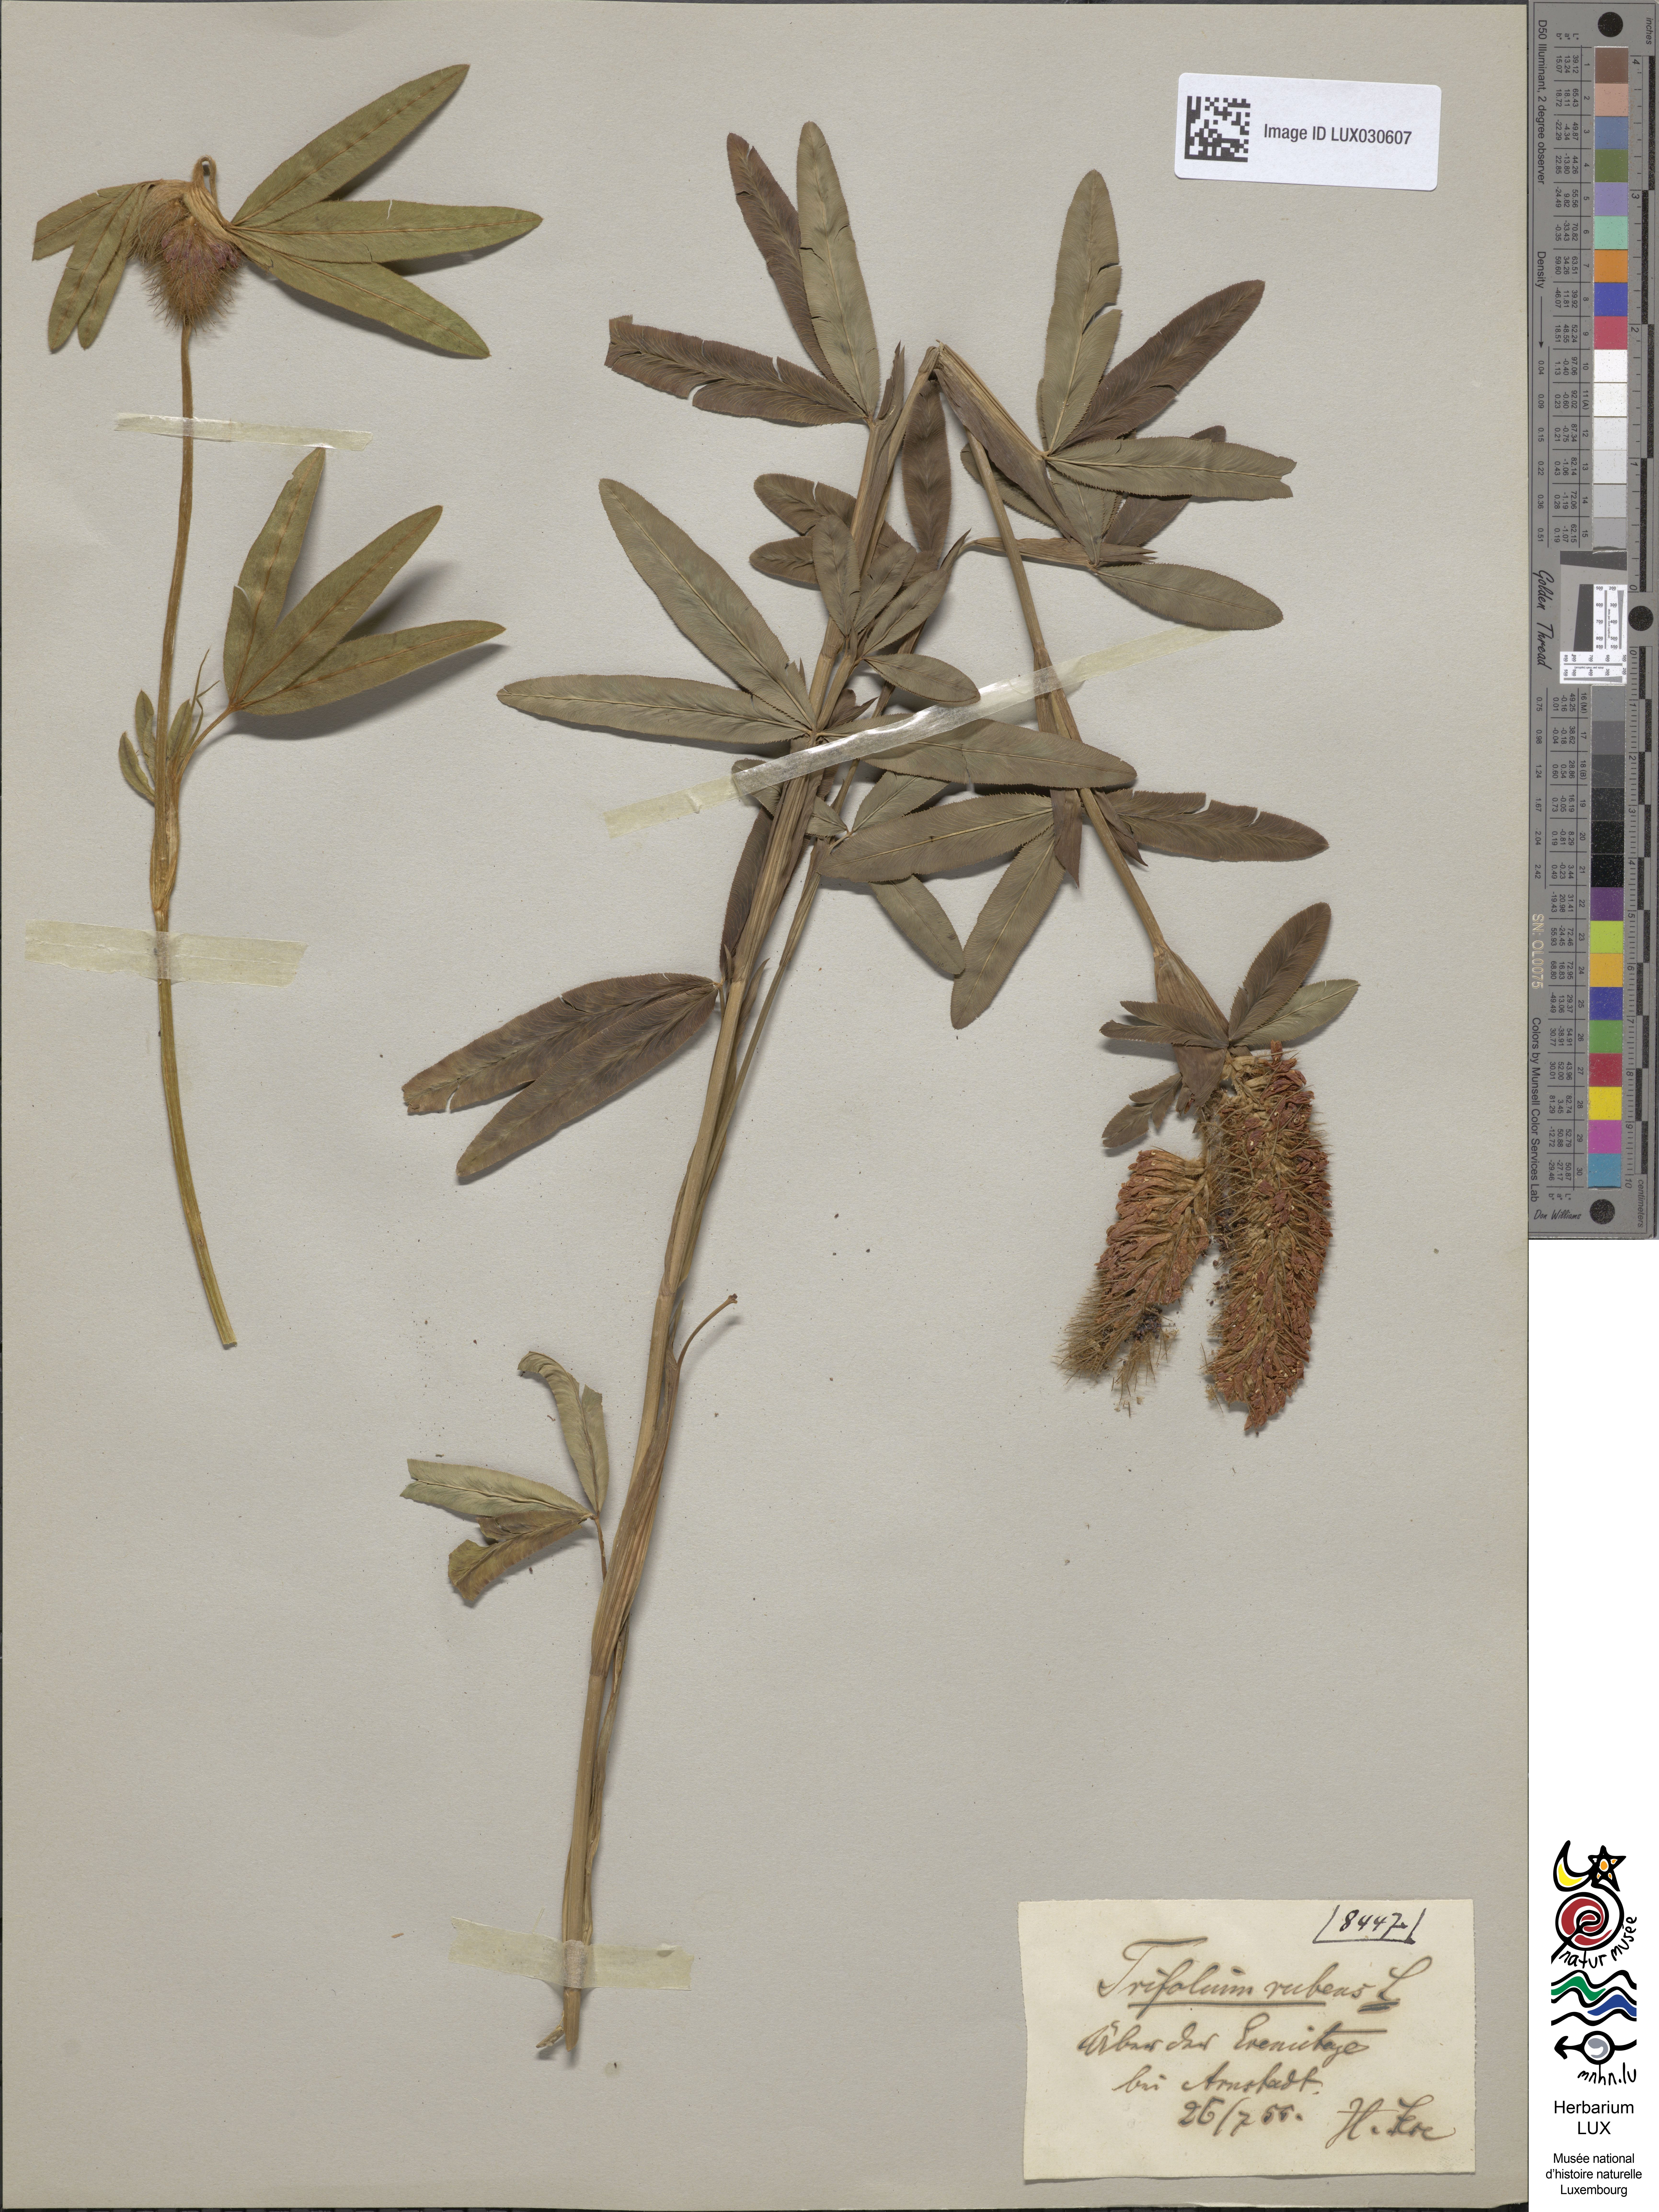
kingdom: Plantae
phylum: Tracheophyta
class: Magnoliopsida
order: Fabales
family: Fabaceae
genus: Trifolium
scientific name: Trifolium rubens
